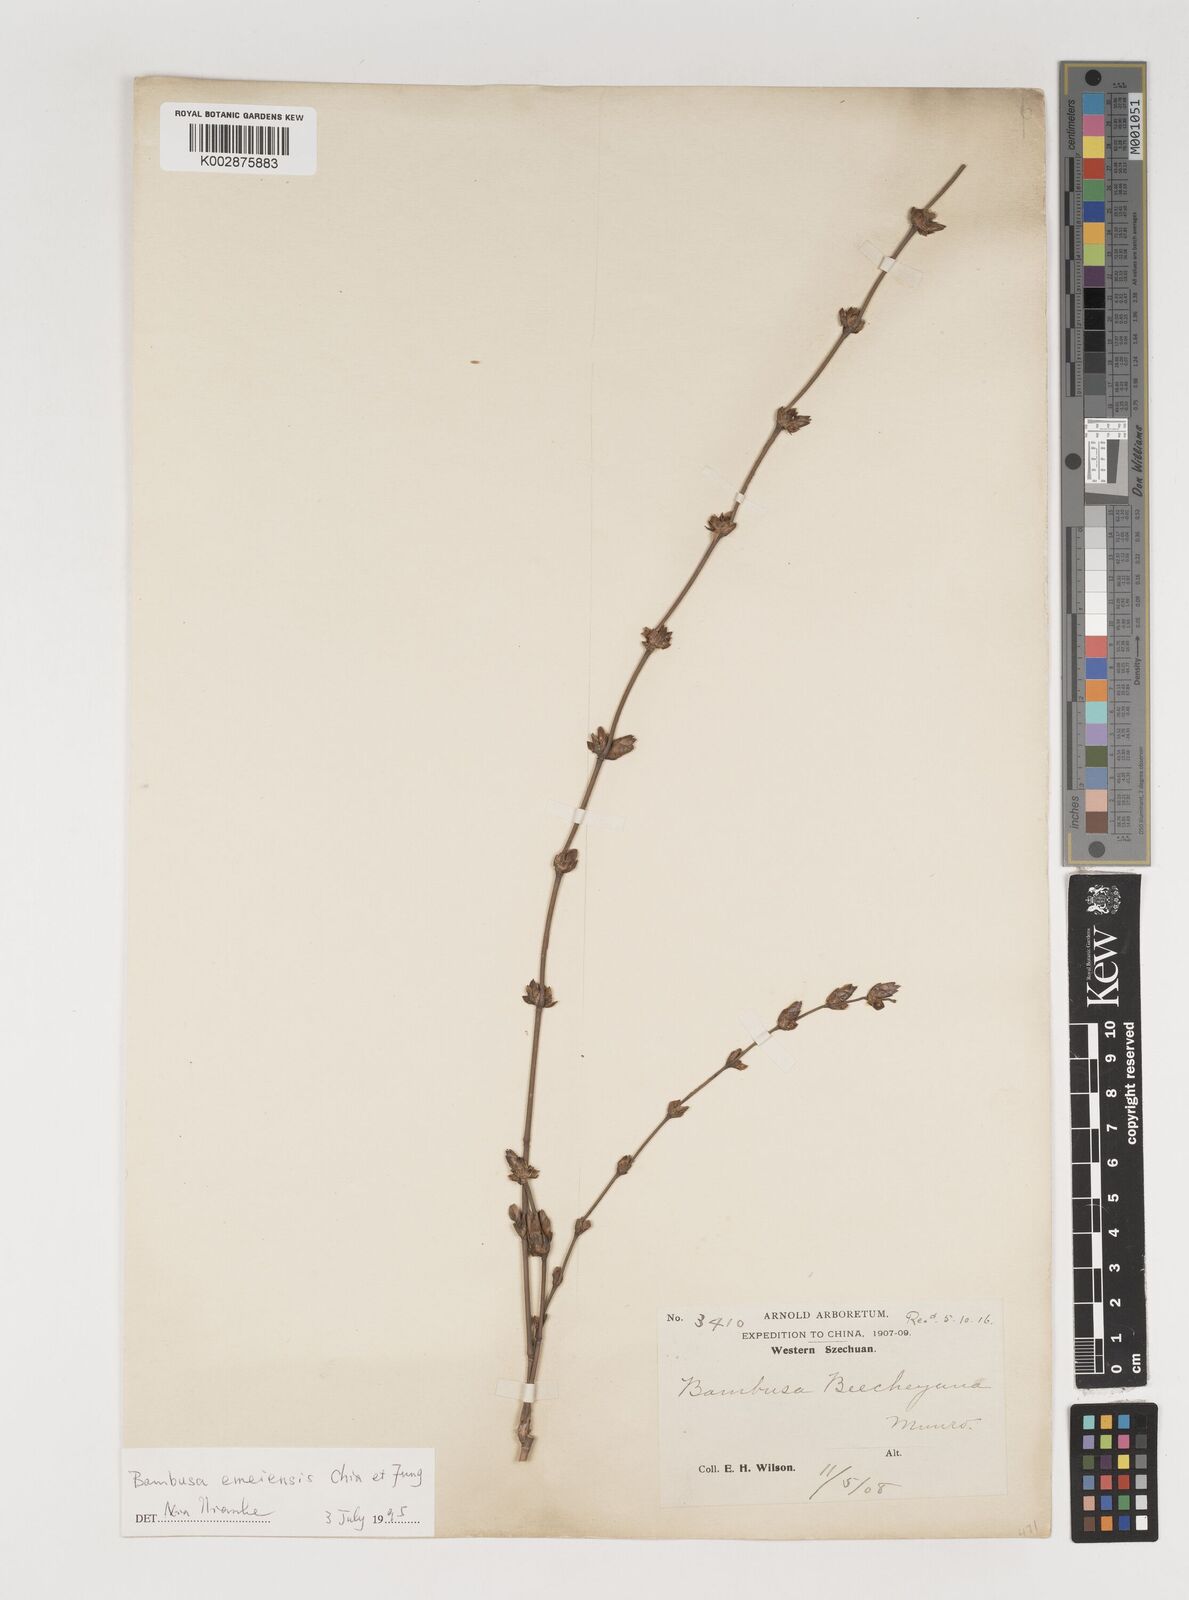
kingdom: Plantae
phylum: Tracheophyta
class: Liliopsida
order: Poales
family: Poaceae
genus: Bambusa
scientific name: Bambusa emeiensis
